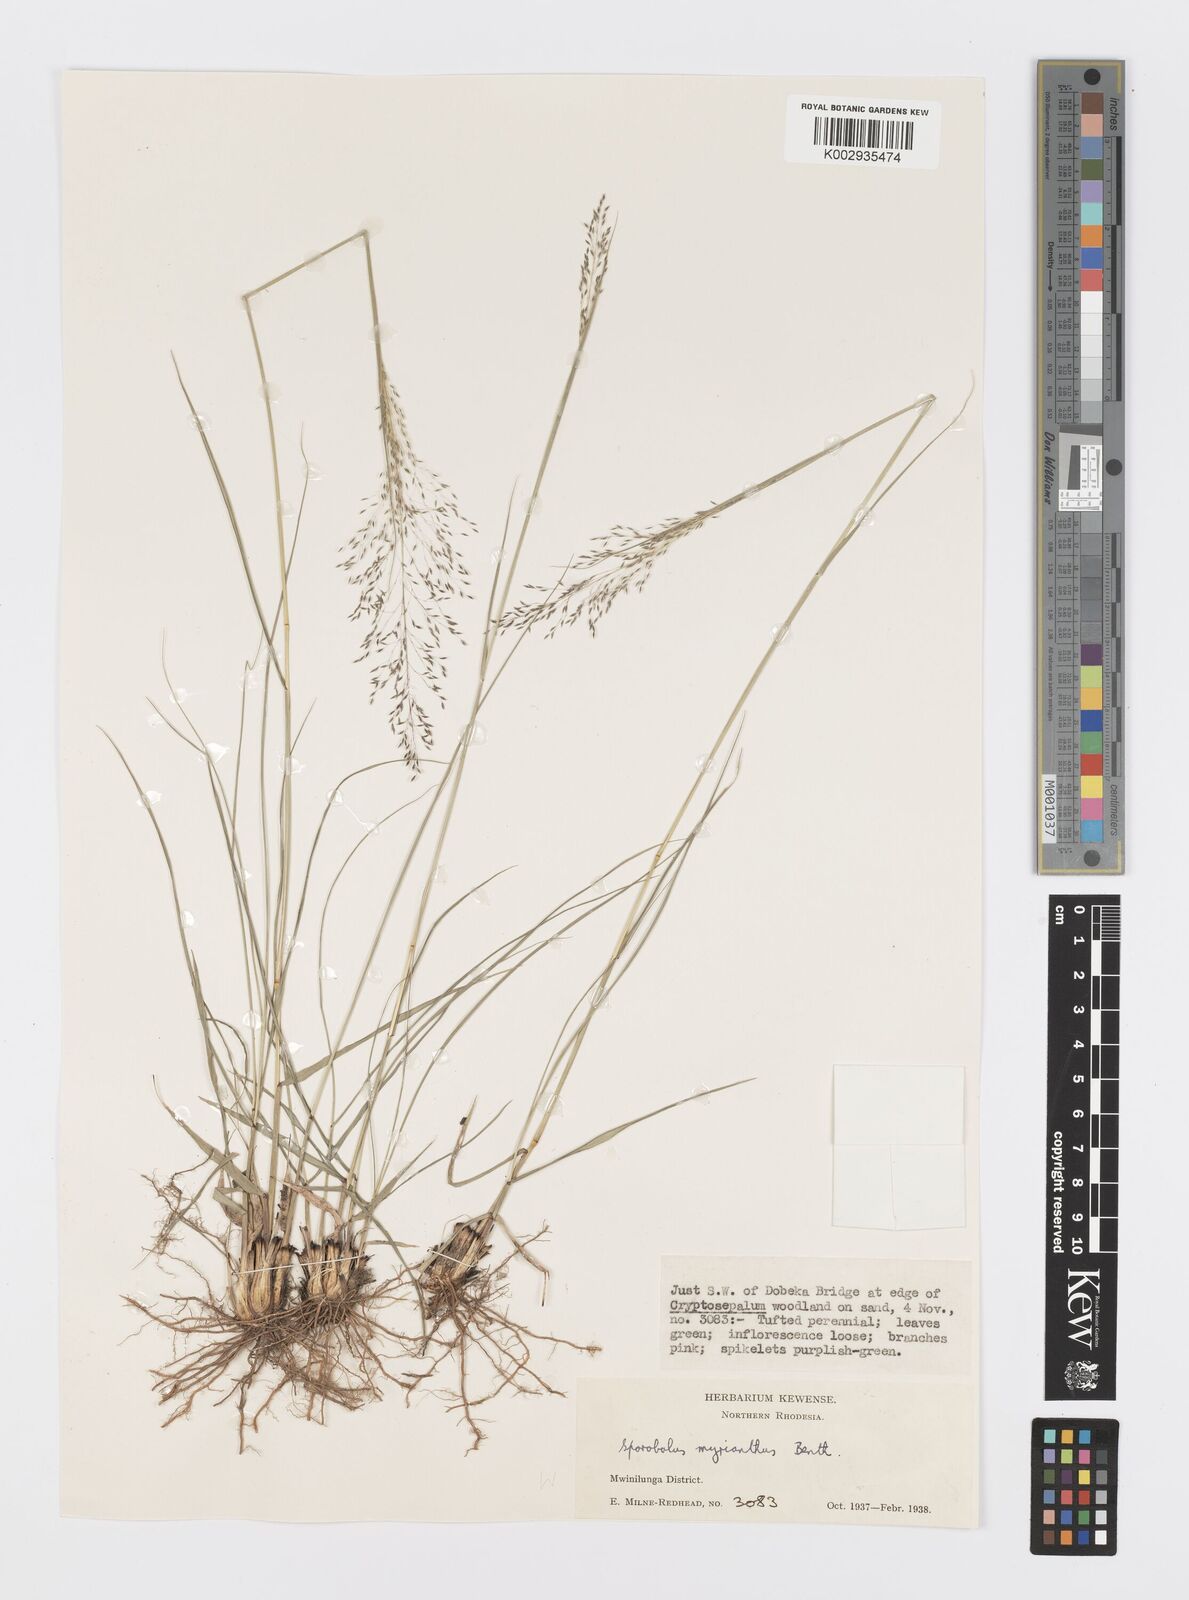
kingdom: Plantae
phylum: Tracheophyta
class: Liliopsida
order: Poales
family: Poaceae
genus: Sporobolus
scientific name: Sporobolus myrianthus
